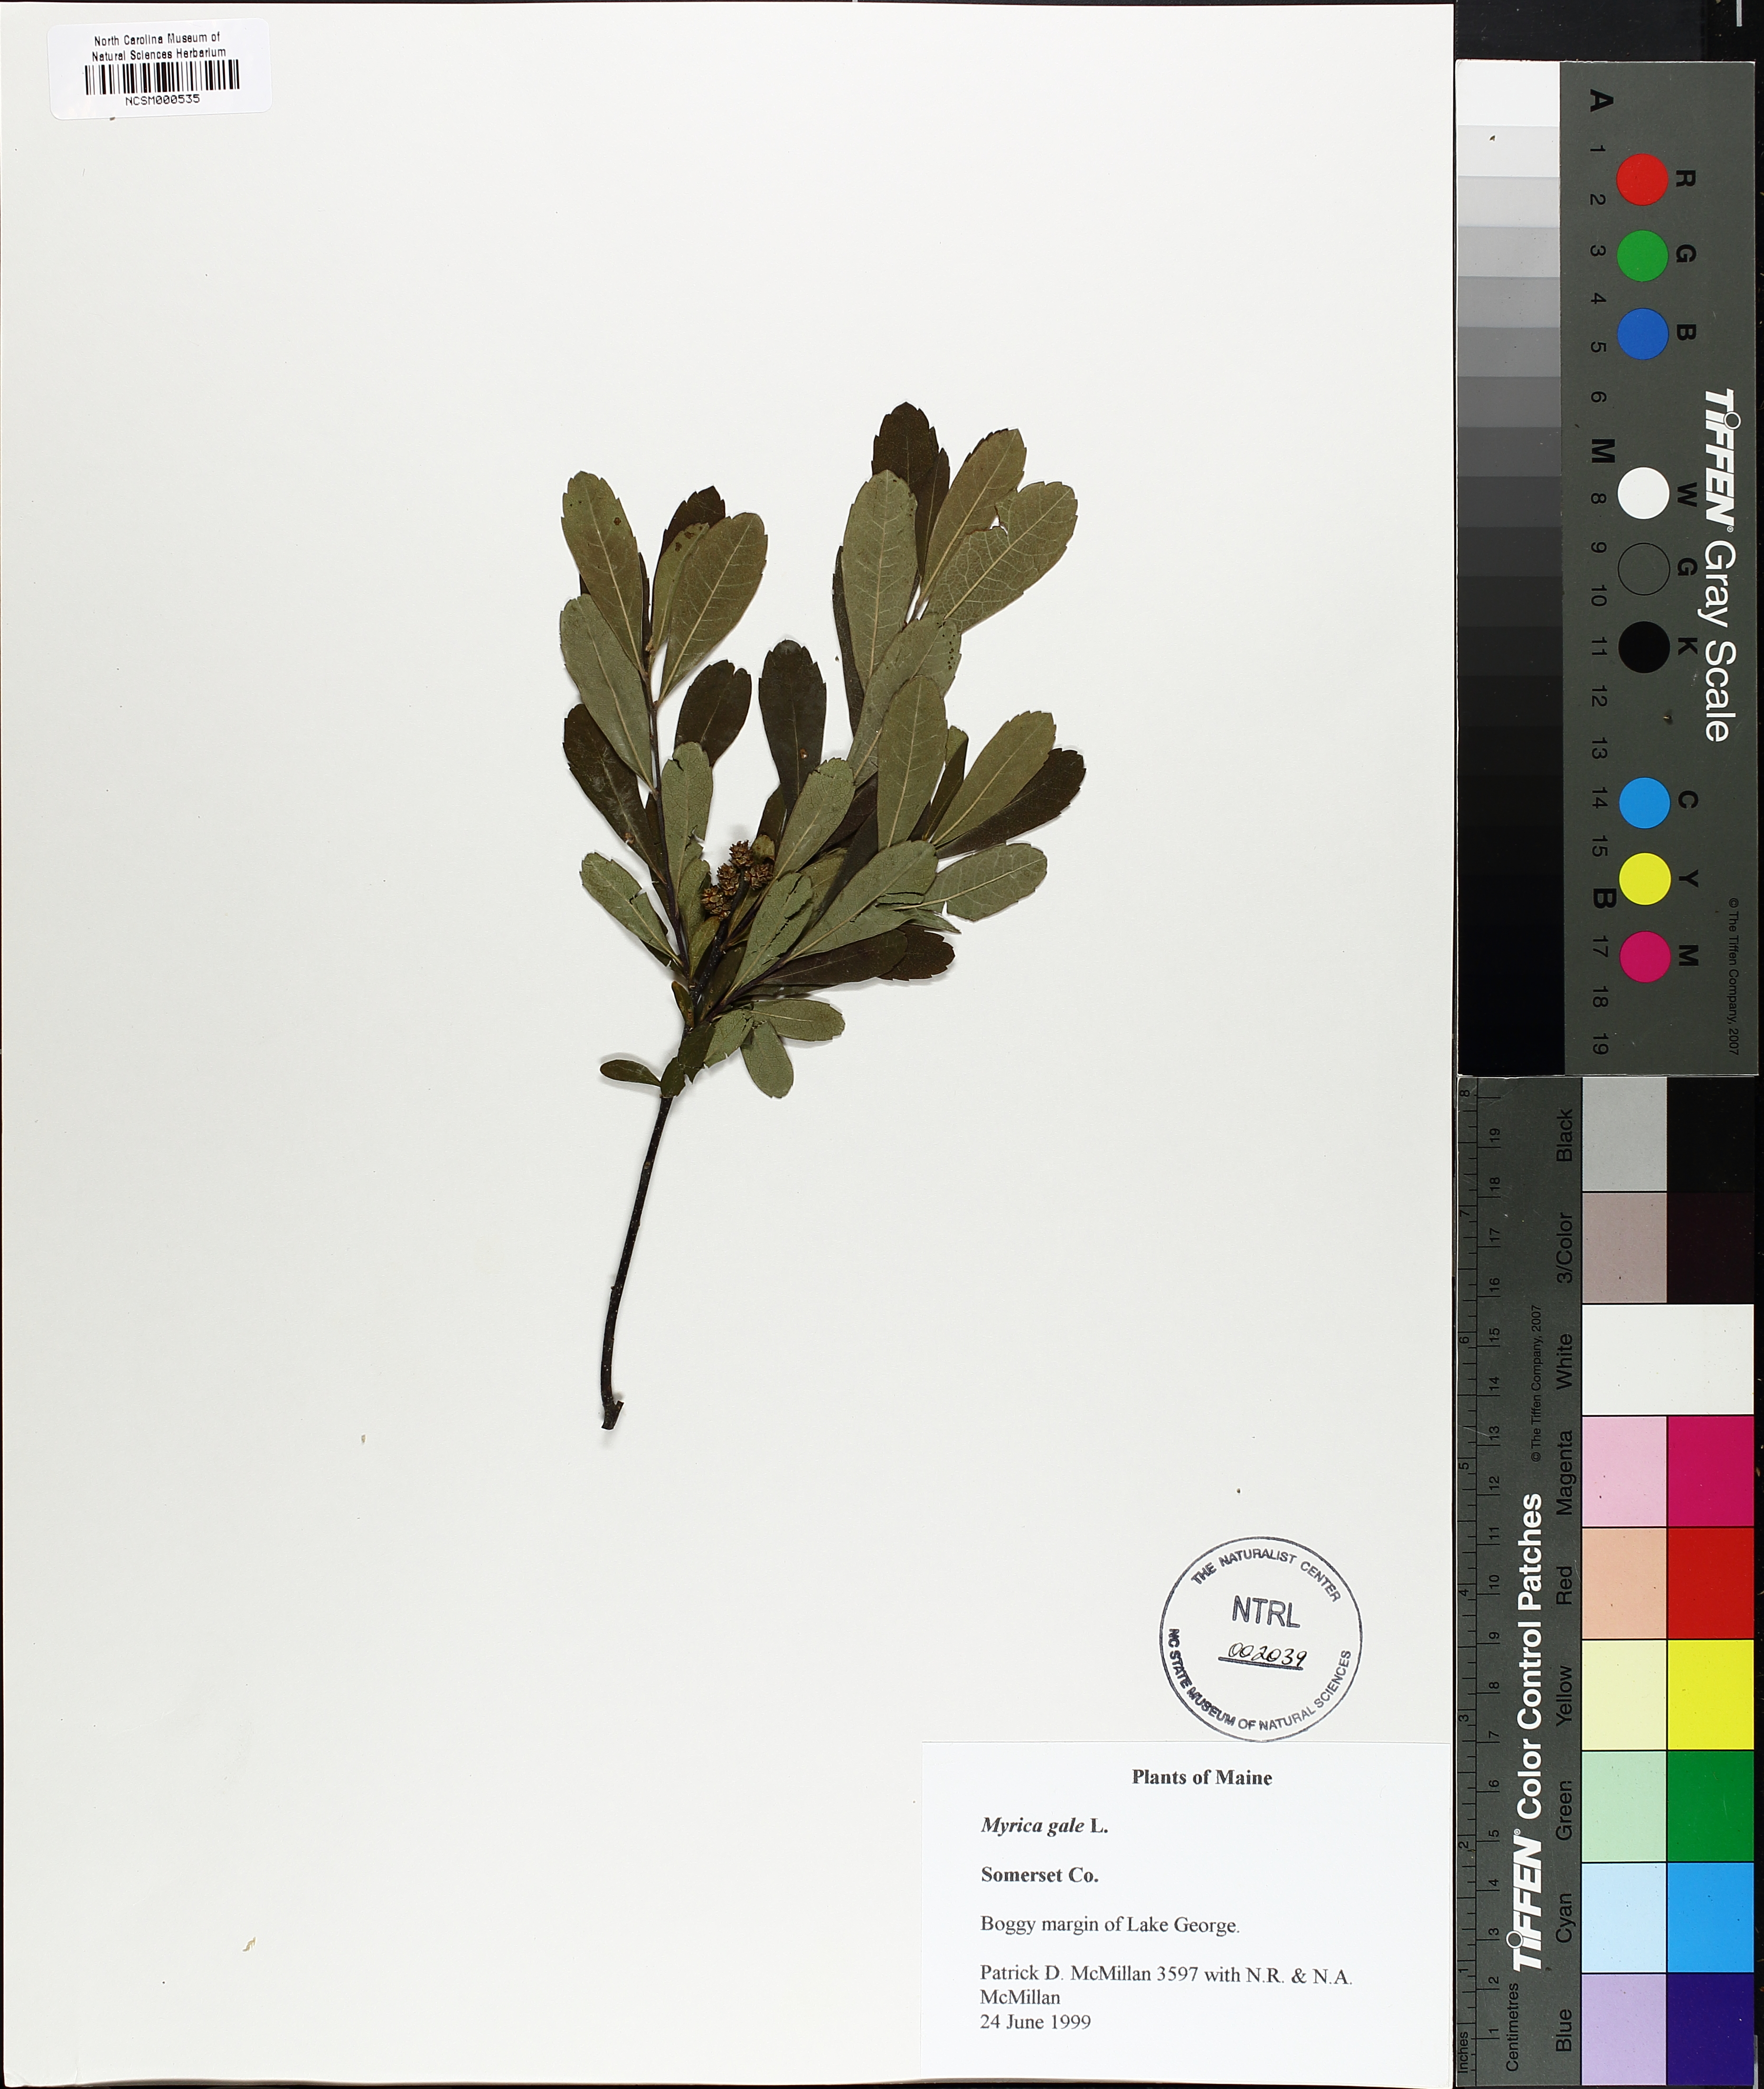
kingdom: Plantae
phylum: Tracheophyta
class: Magnoliopsida
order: Fagales
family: Myricaceae
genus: Myrica
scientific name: Myrica gale
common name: Sweet gale
